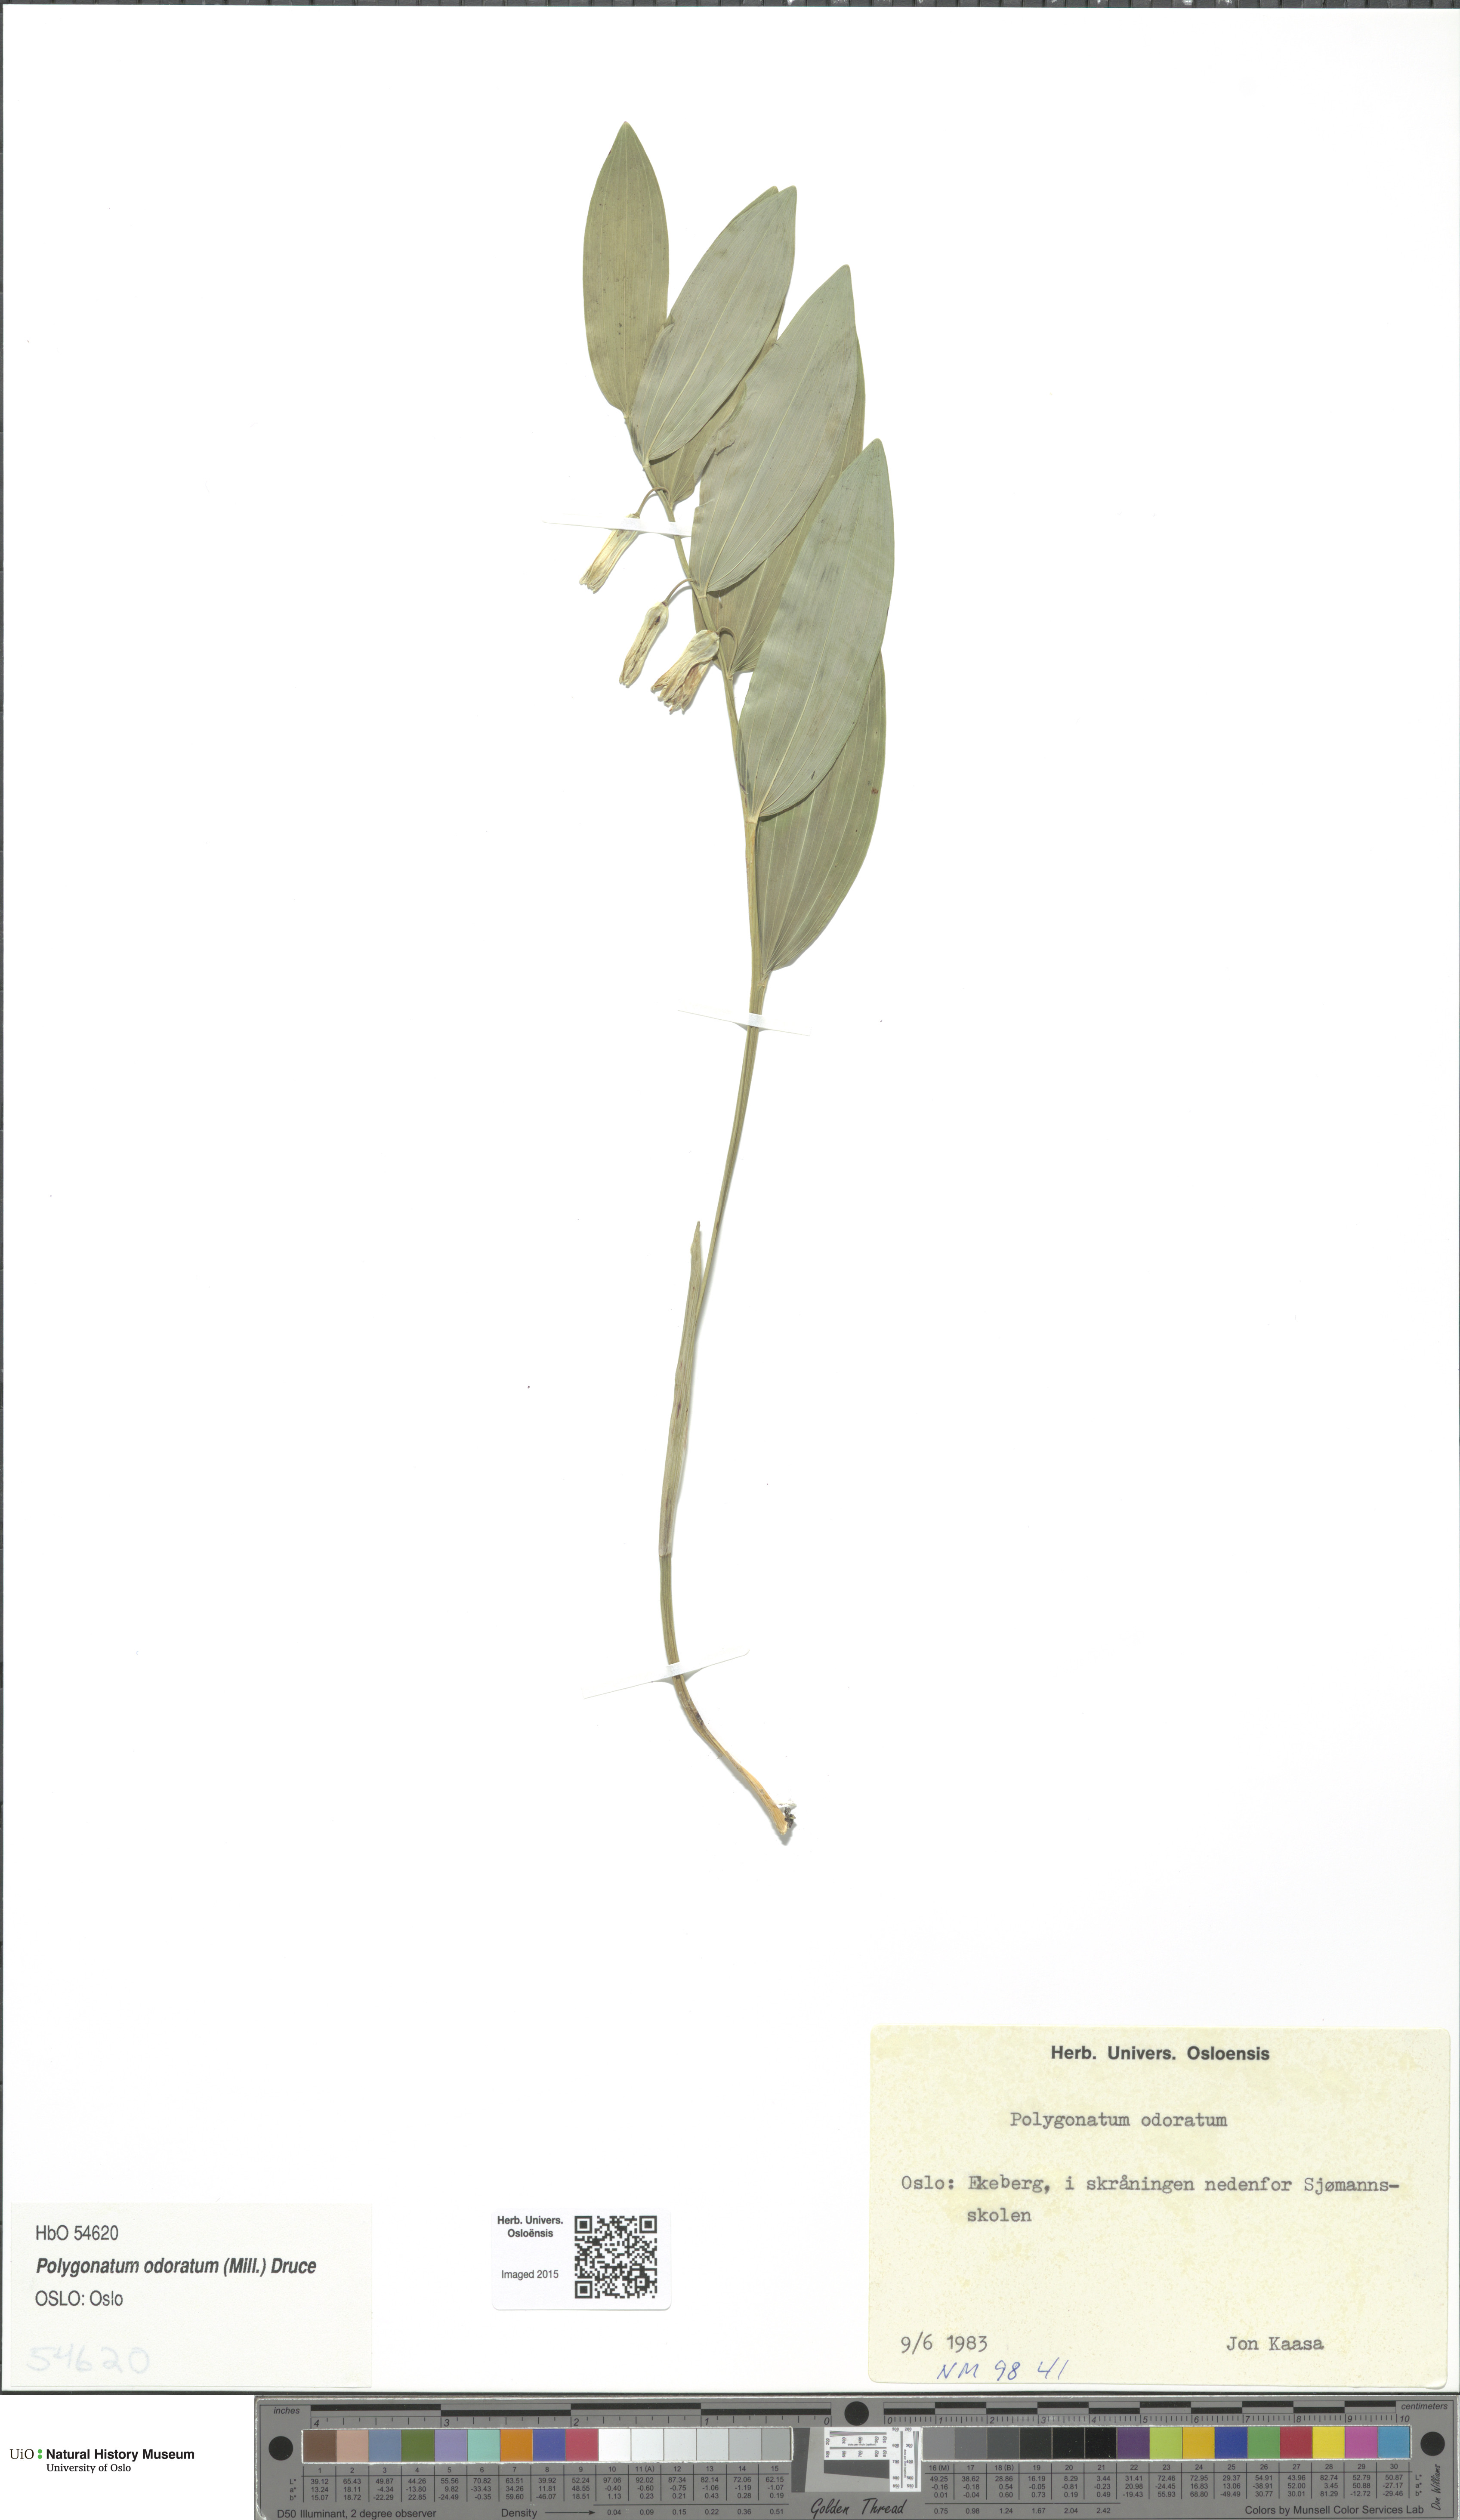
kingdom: Plantae
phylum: Tracheophyta
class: Liliopsida
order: Asparagales
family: Asparagaceae
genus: Polygonatum
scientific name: Polygonatum odoratum
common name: Angular solomon's-seal
